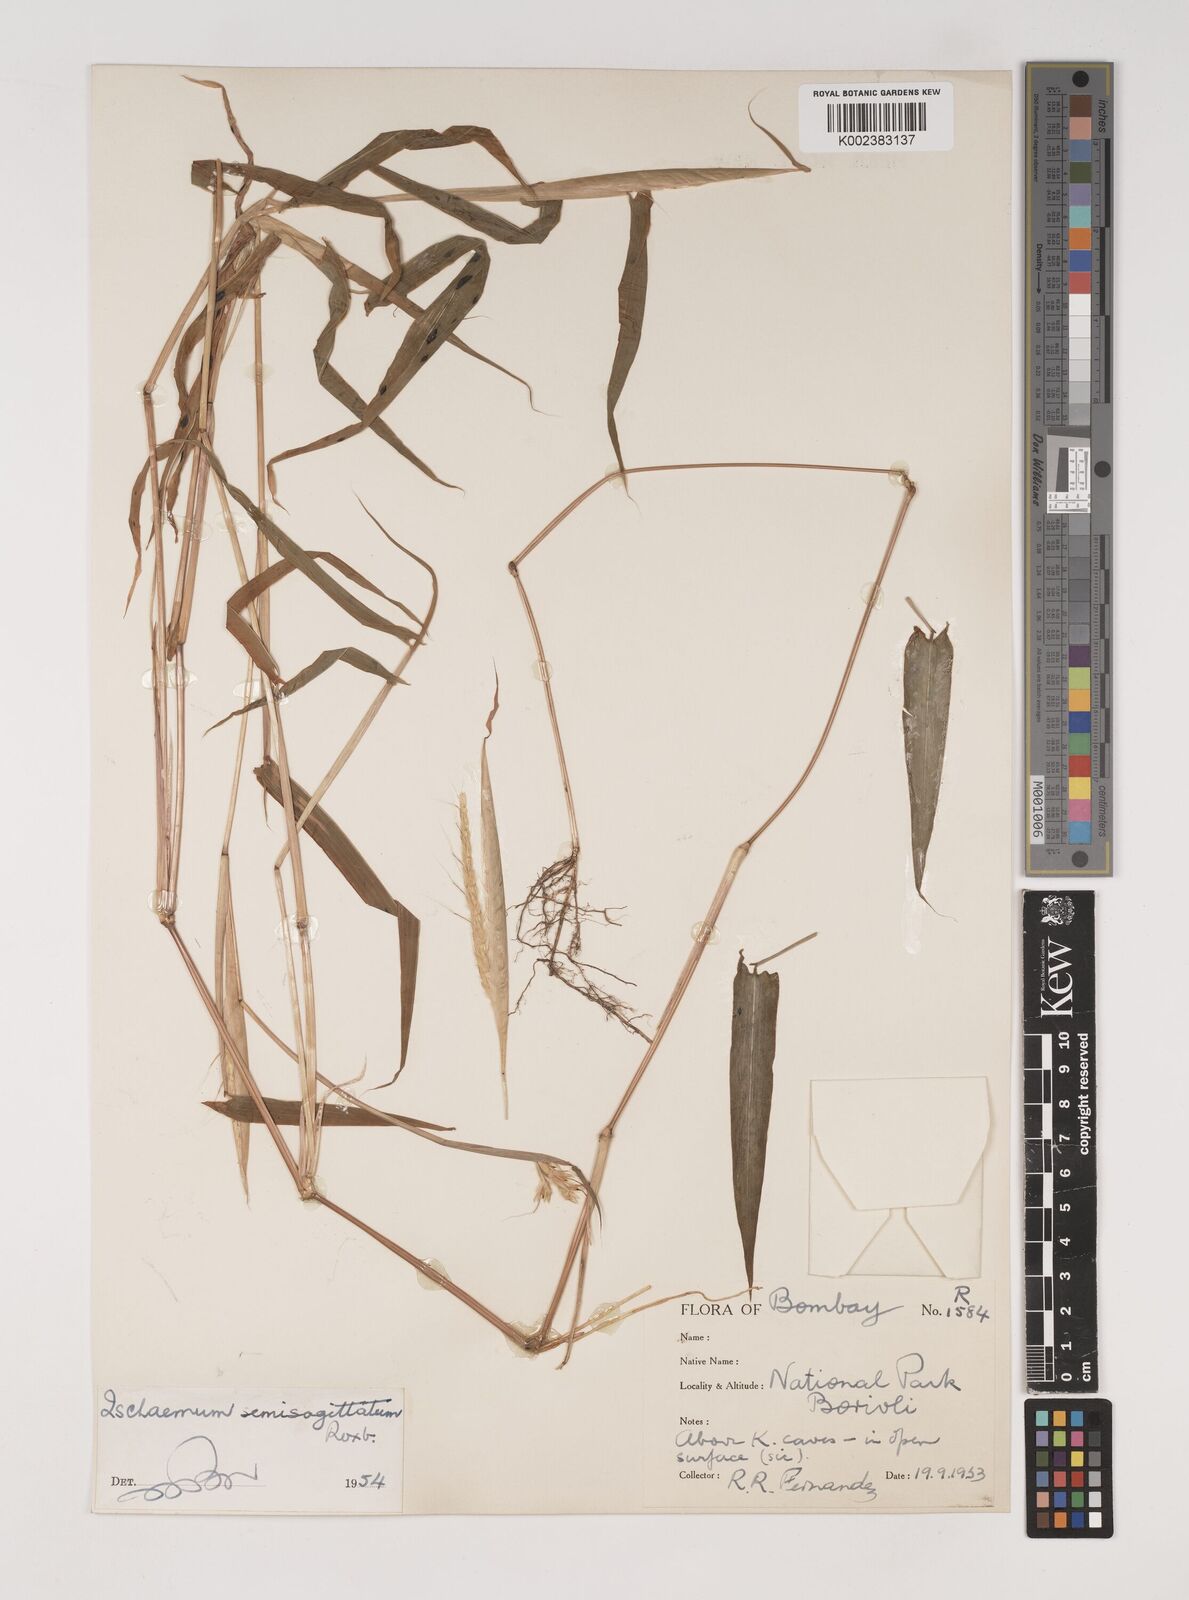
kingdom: Plantae
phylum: Tracheophyta
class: Liliopsida
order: Poales
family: Poaceae
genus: Ischaemum
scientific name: Ischaemum semisagittatum
